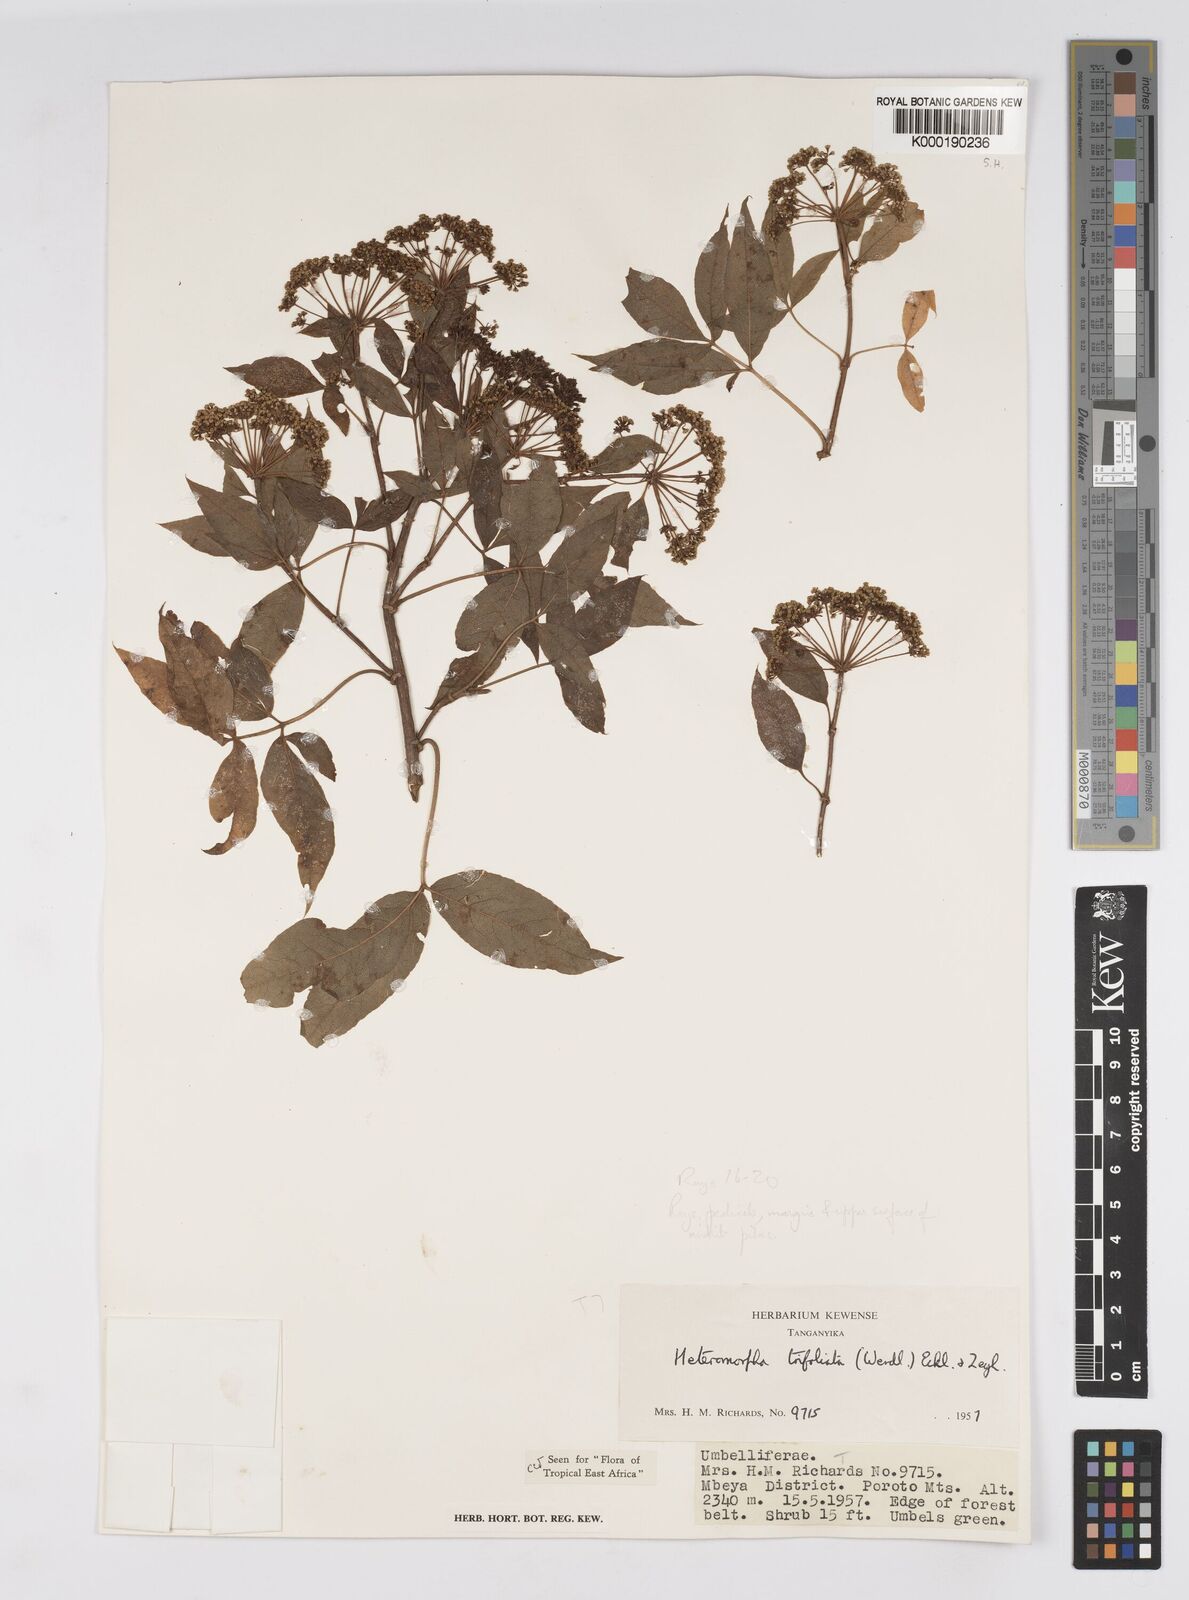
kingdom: Plantae
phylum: Tracheophyta
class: Magnoliopsida
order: Apiales
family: Apiaceae
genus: Heteromorpha
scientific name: Heteromorpha arborescens
